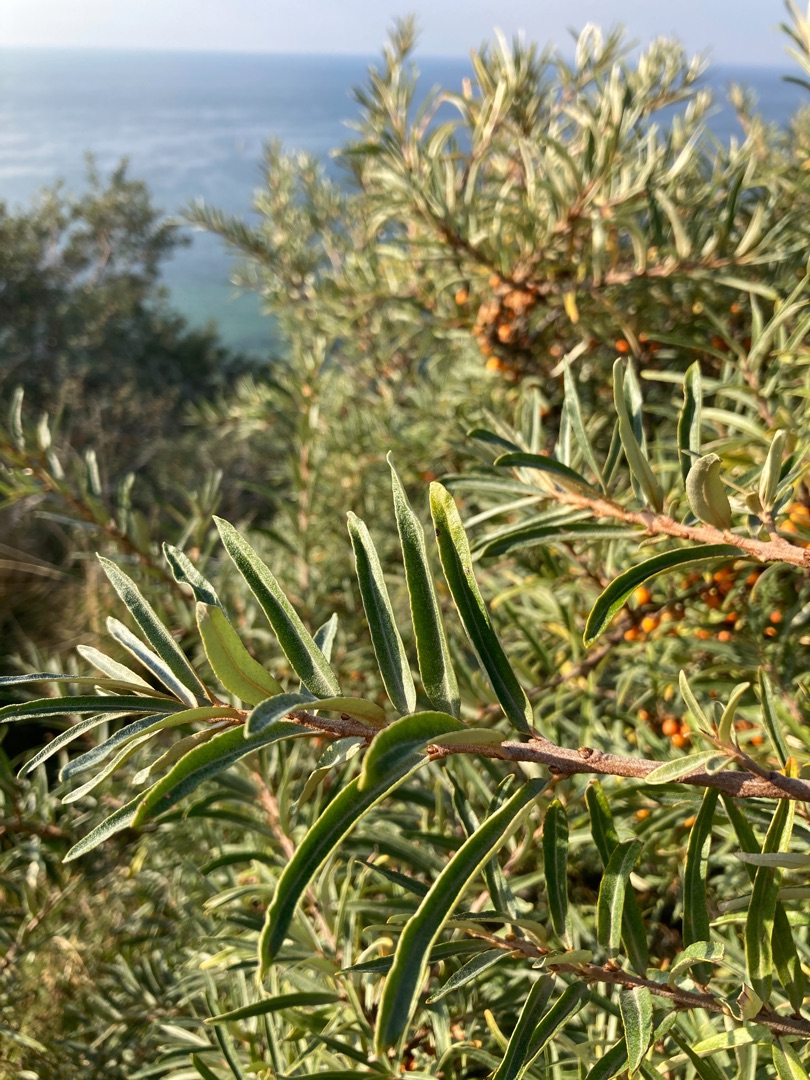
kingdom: Plantae
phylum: Tracheophyta
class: Magnoliopsida
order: Rosales
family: Elaeagnaceae
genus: Hippophae
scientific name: Hippophae rhamnoides
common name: Havtorn
